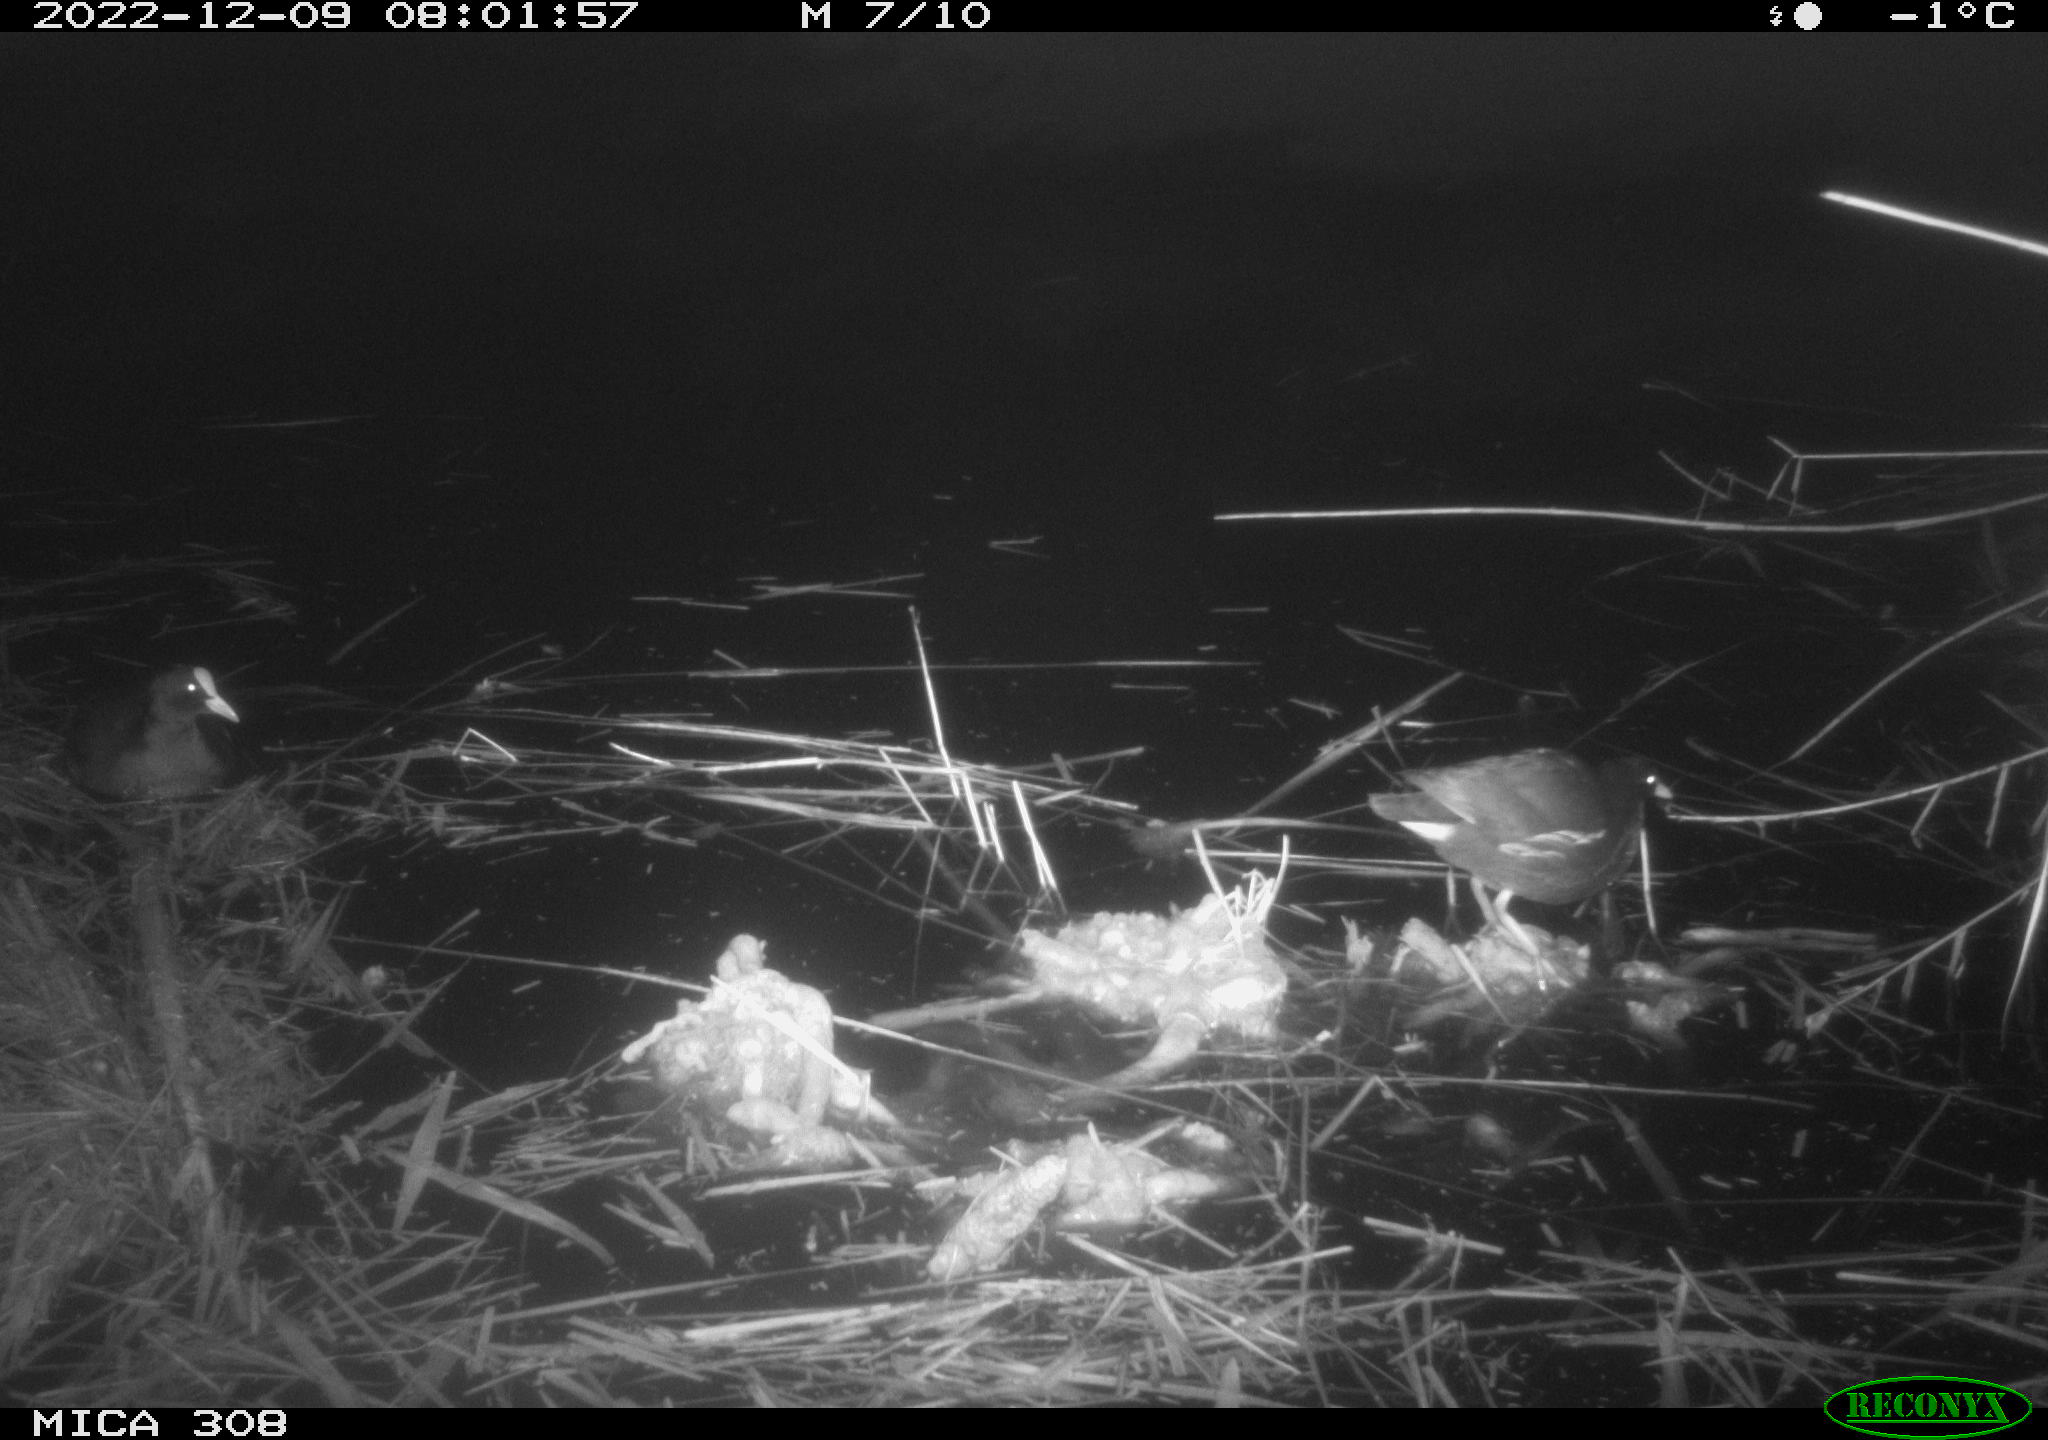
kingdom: Animalia
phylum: Chordata
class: Mammalia
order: Rodentia
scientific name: Rodentia
